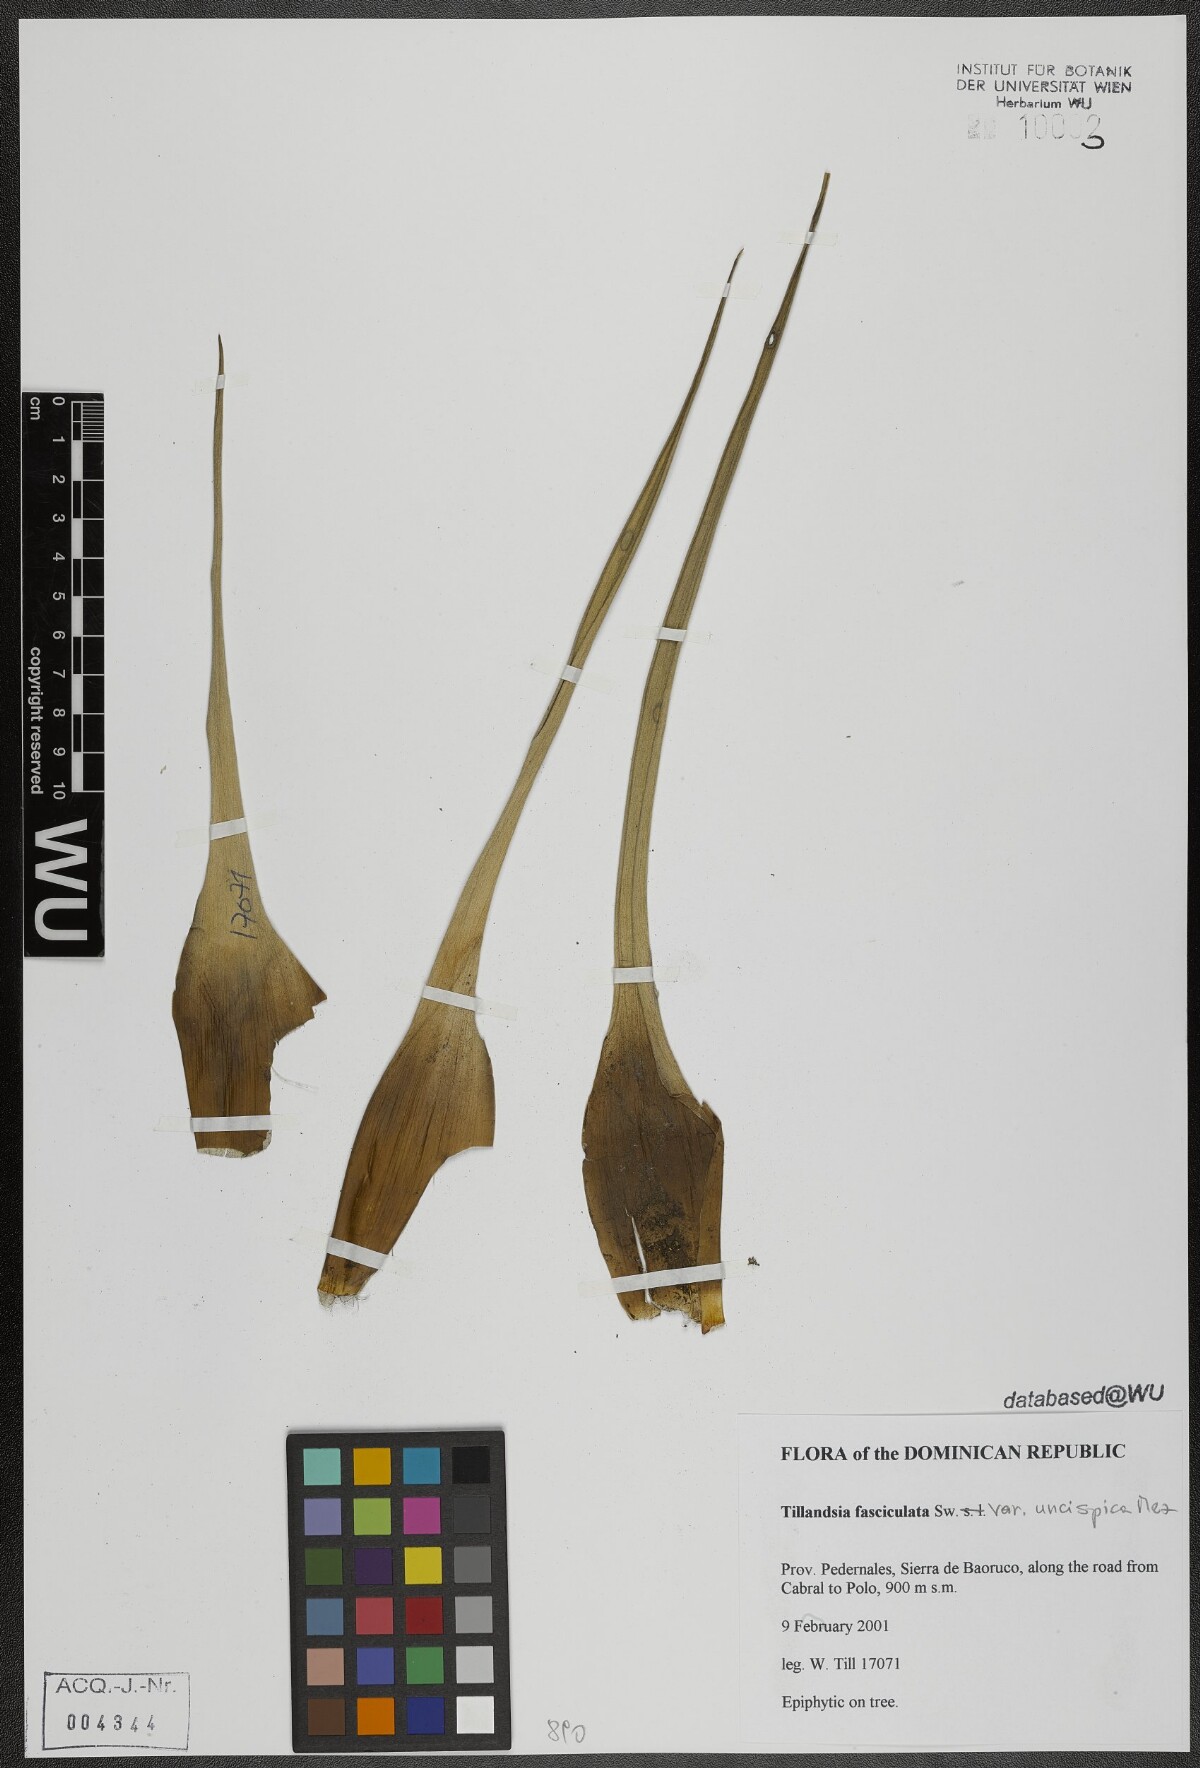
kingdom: Plantae
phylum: Tracheophyta
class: Liliopsida
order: Poales
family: Bromeliaceae
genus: Tillandsia
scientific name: Tillandsia fasciculata
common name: Giant airplant
